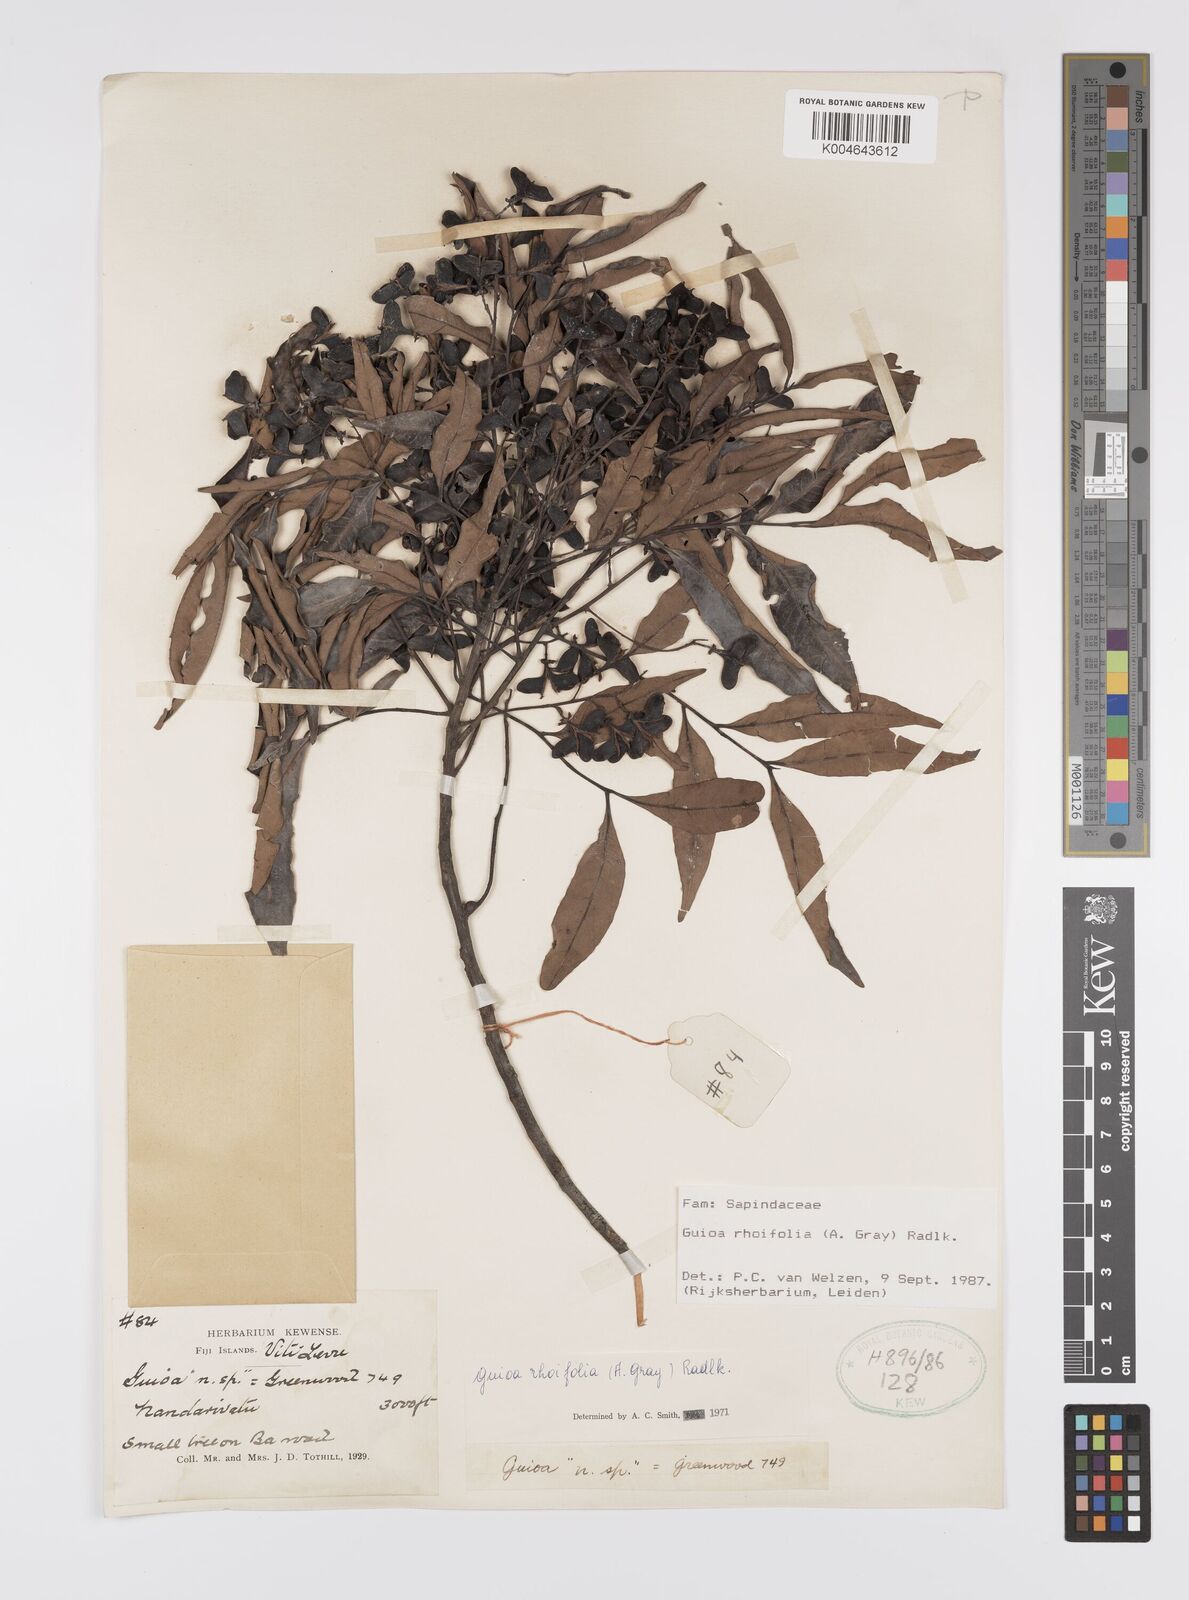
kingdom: Plantae
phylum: Tracheophyta
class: Magnoliopsida
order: Sapindales
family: Sapindaceae
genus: Guioa
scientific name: Guioa rhoifolia
